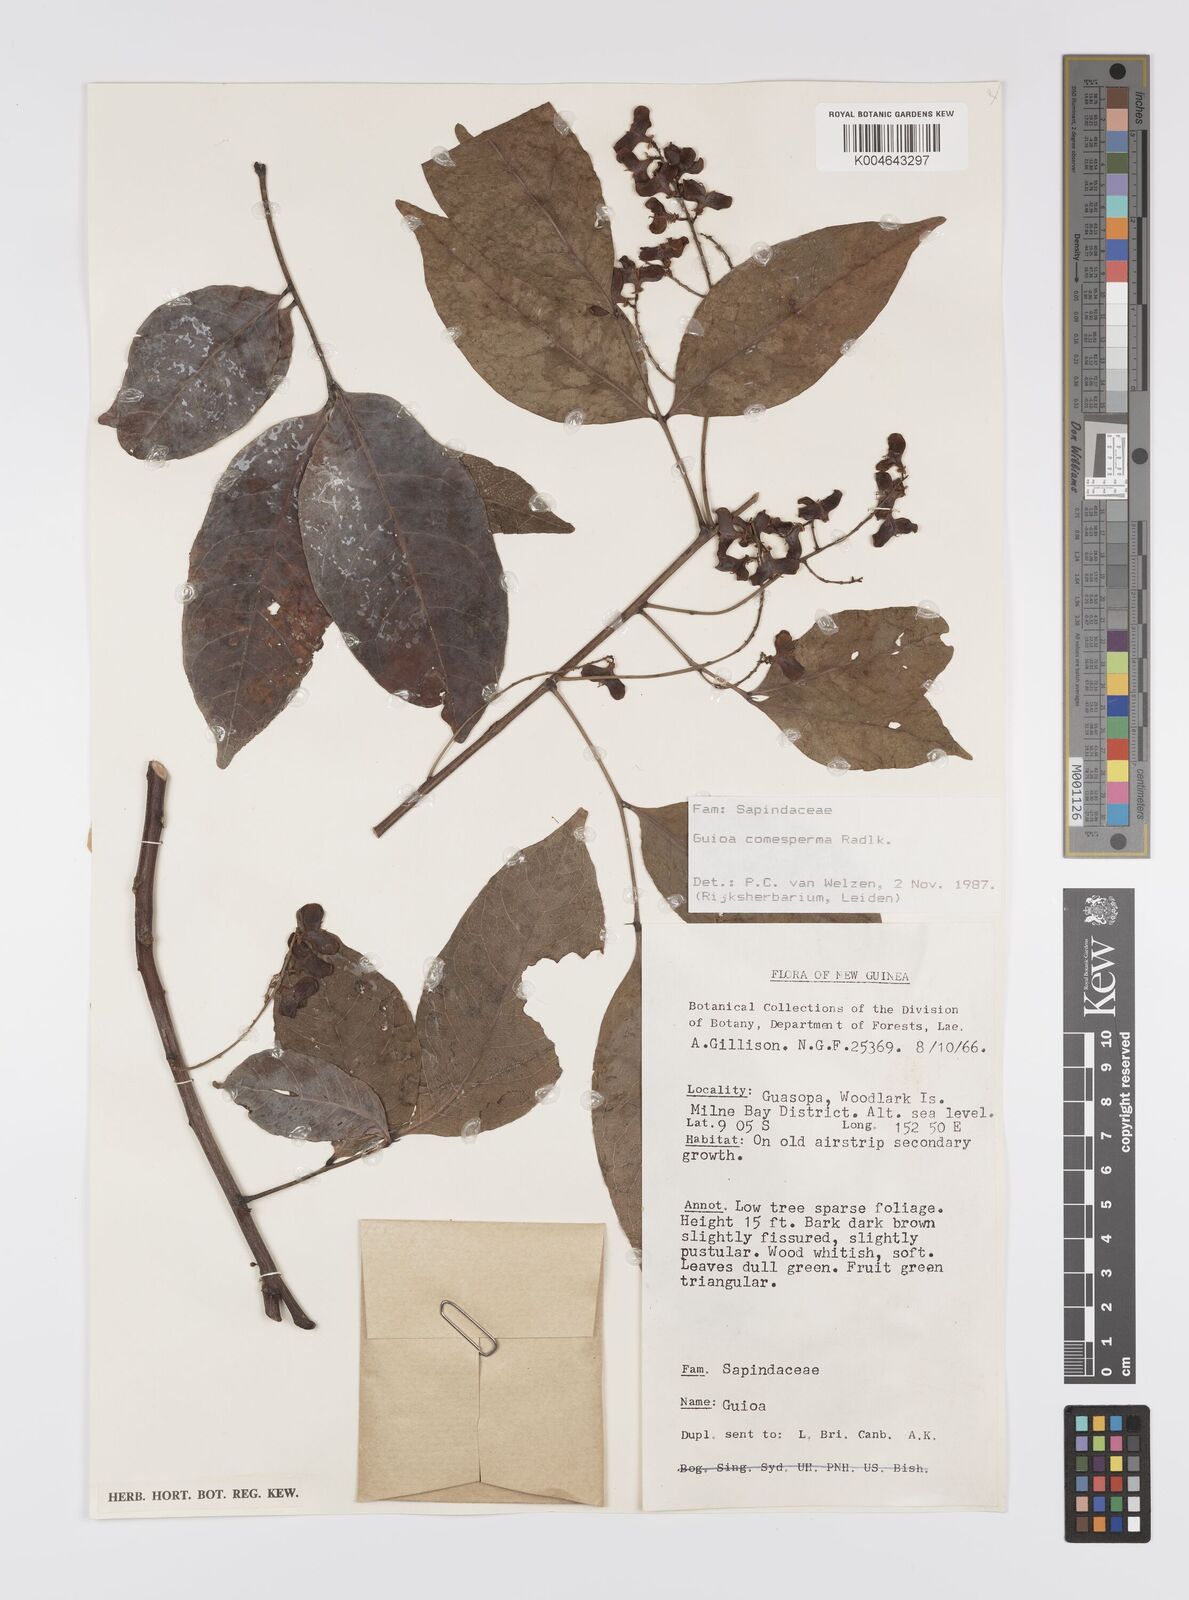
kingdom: Plantae
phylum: Tracheophyta
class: Magnoliopsida
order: Sapindales
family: Sapindaceae
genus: Guioa
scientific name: Guioa comesperma
